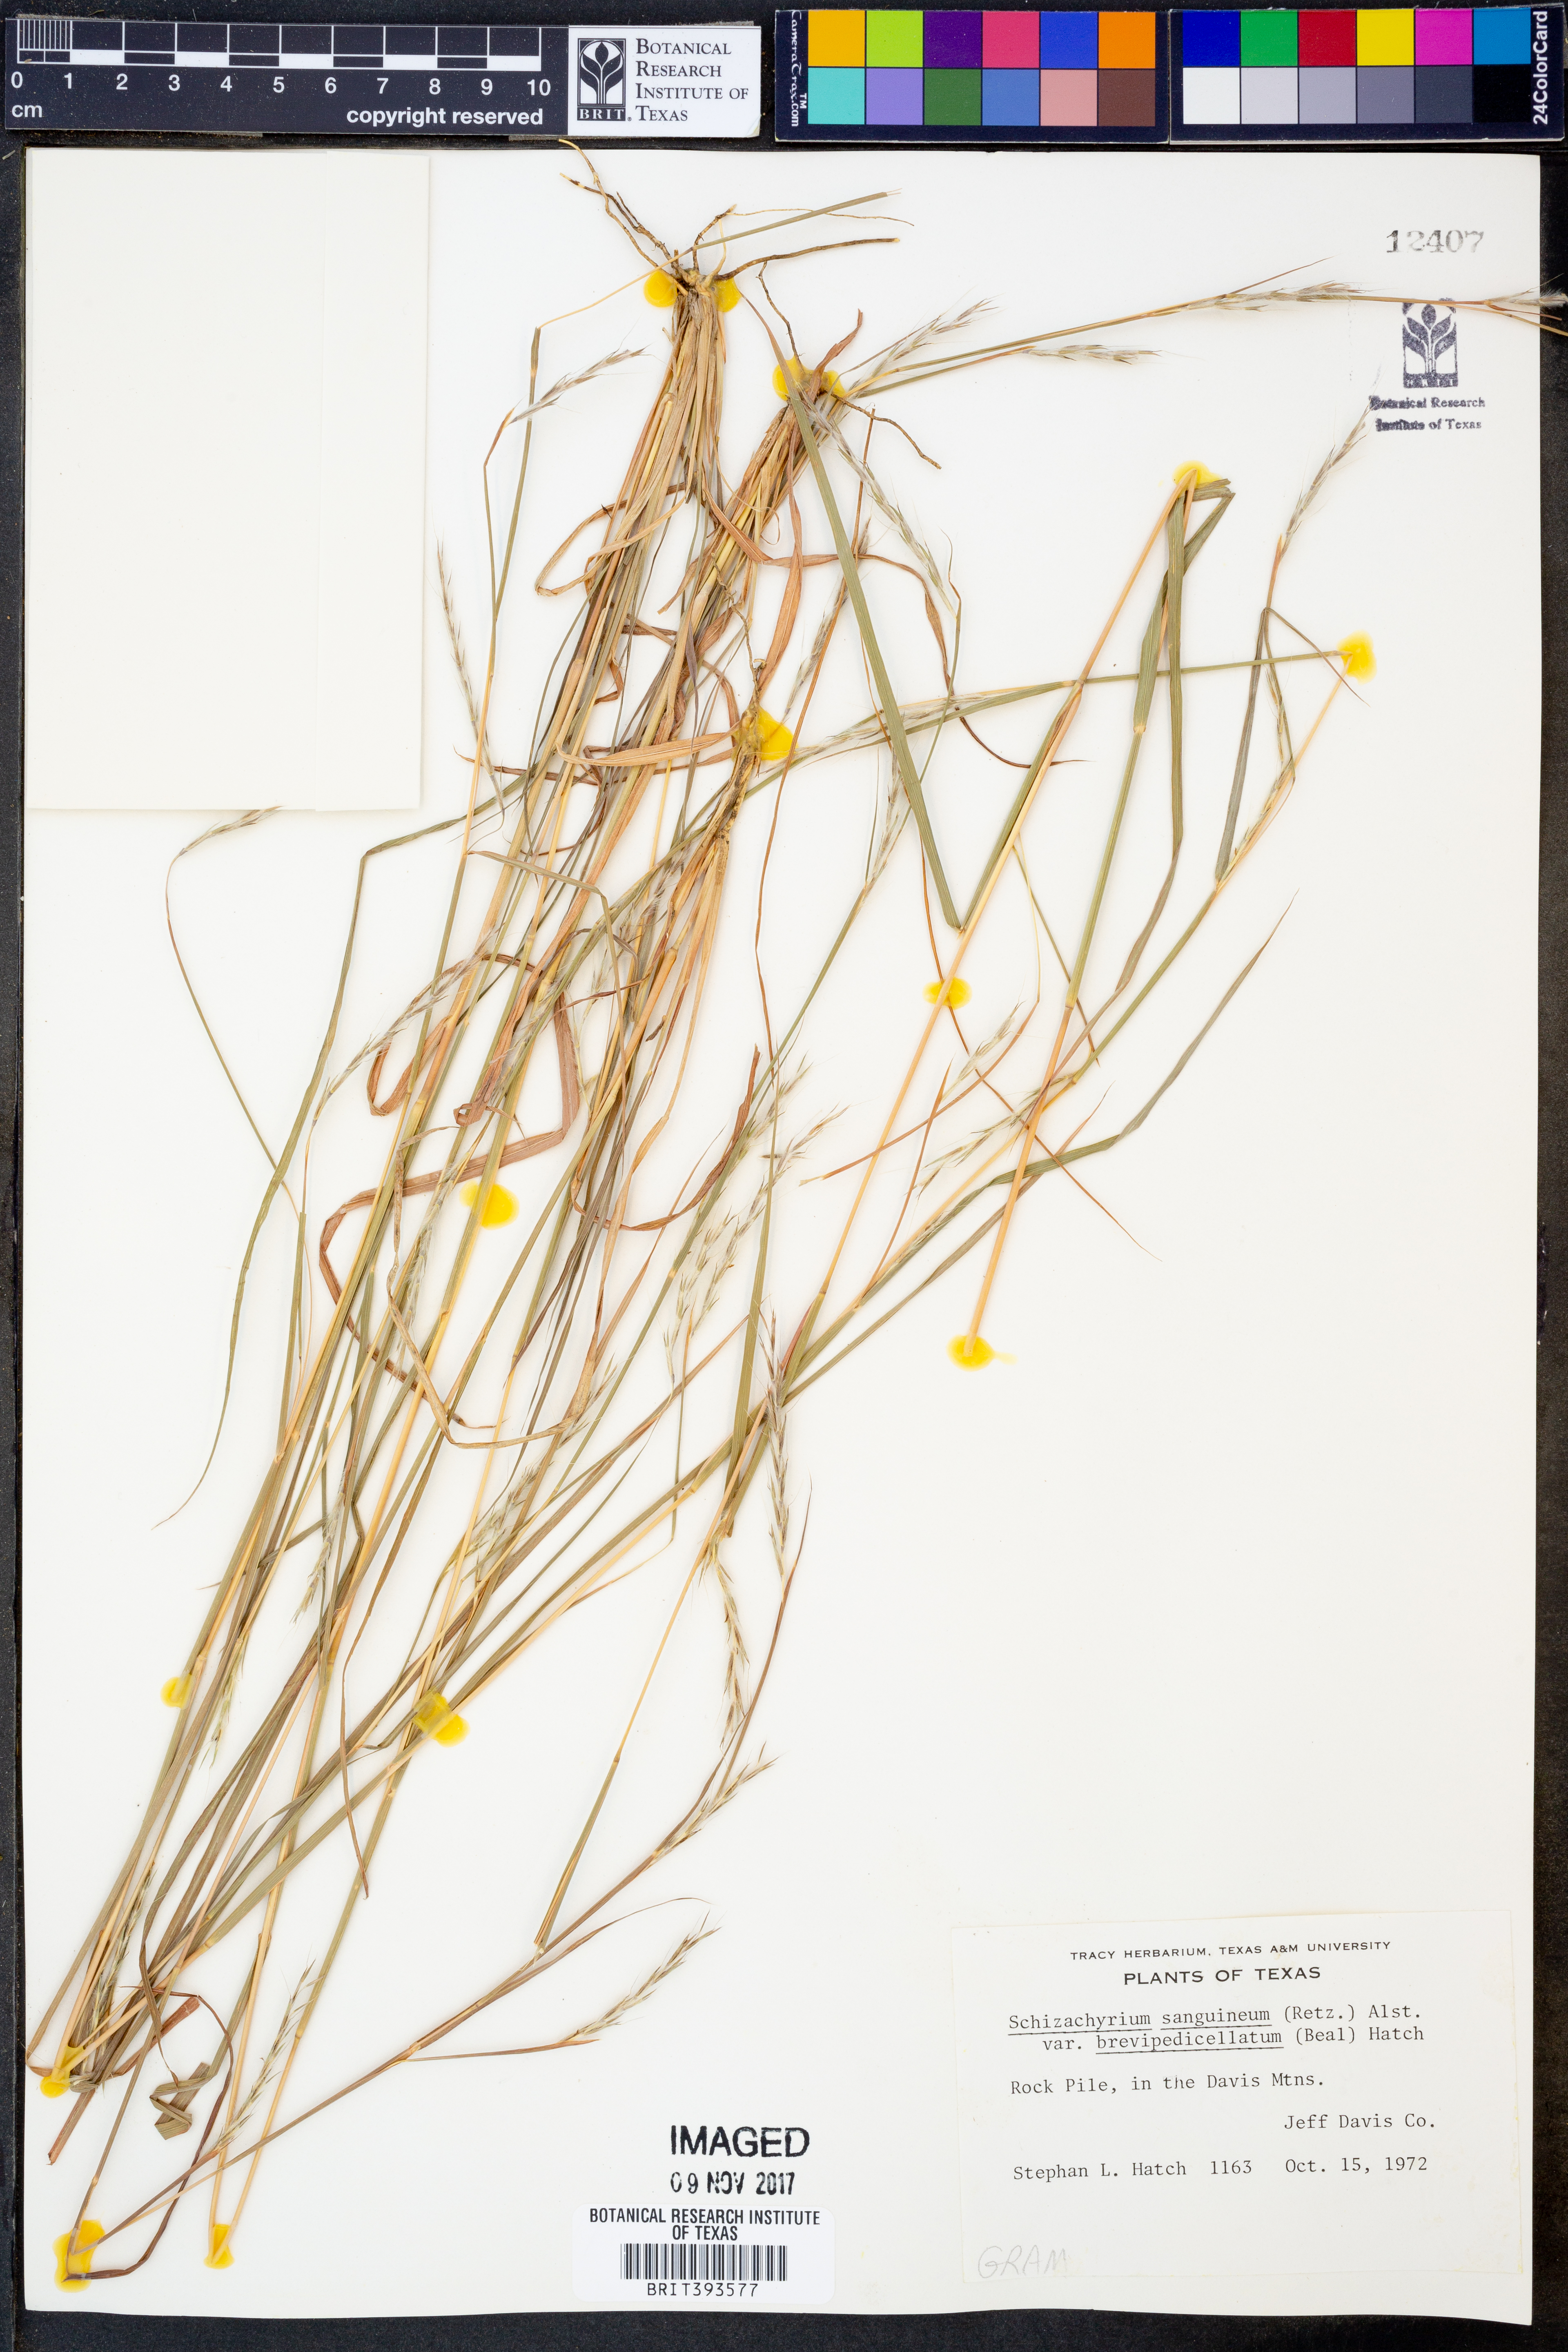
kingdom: Plantae
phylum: Tracheophyta
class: Liliopsida
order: Poales
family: Poaceae
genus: Schizachyrium
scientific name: Schizachyrium sanguineum
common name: Crimson bluestem
